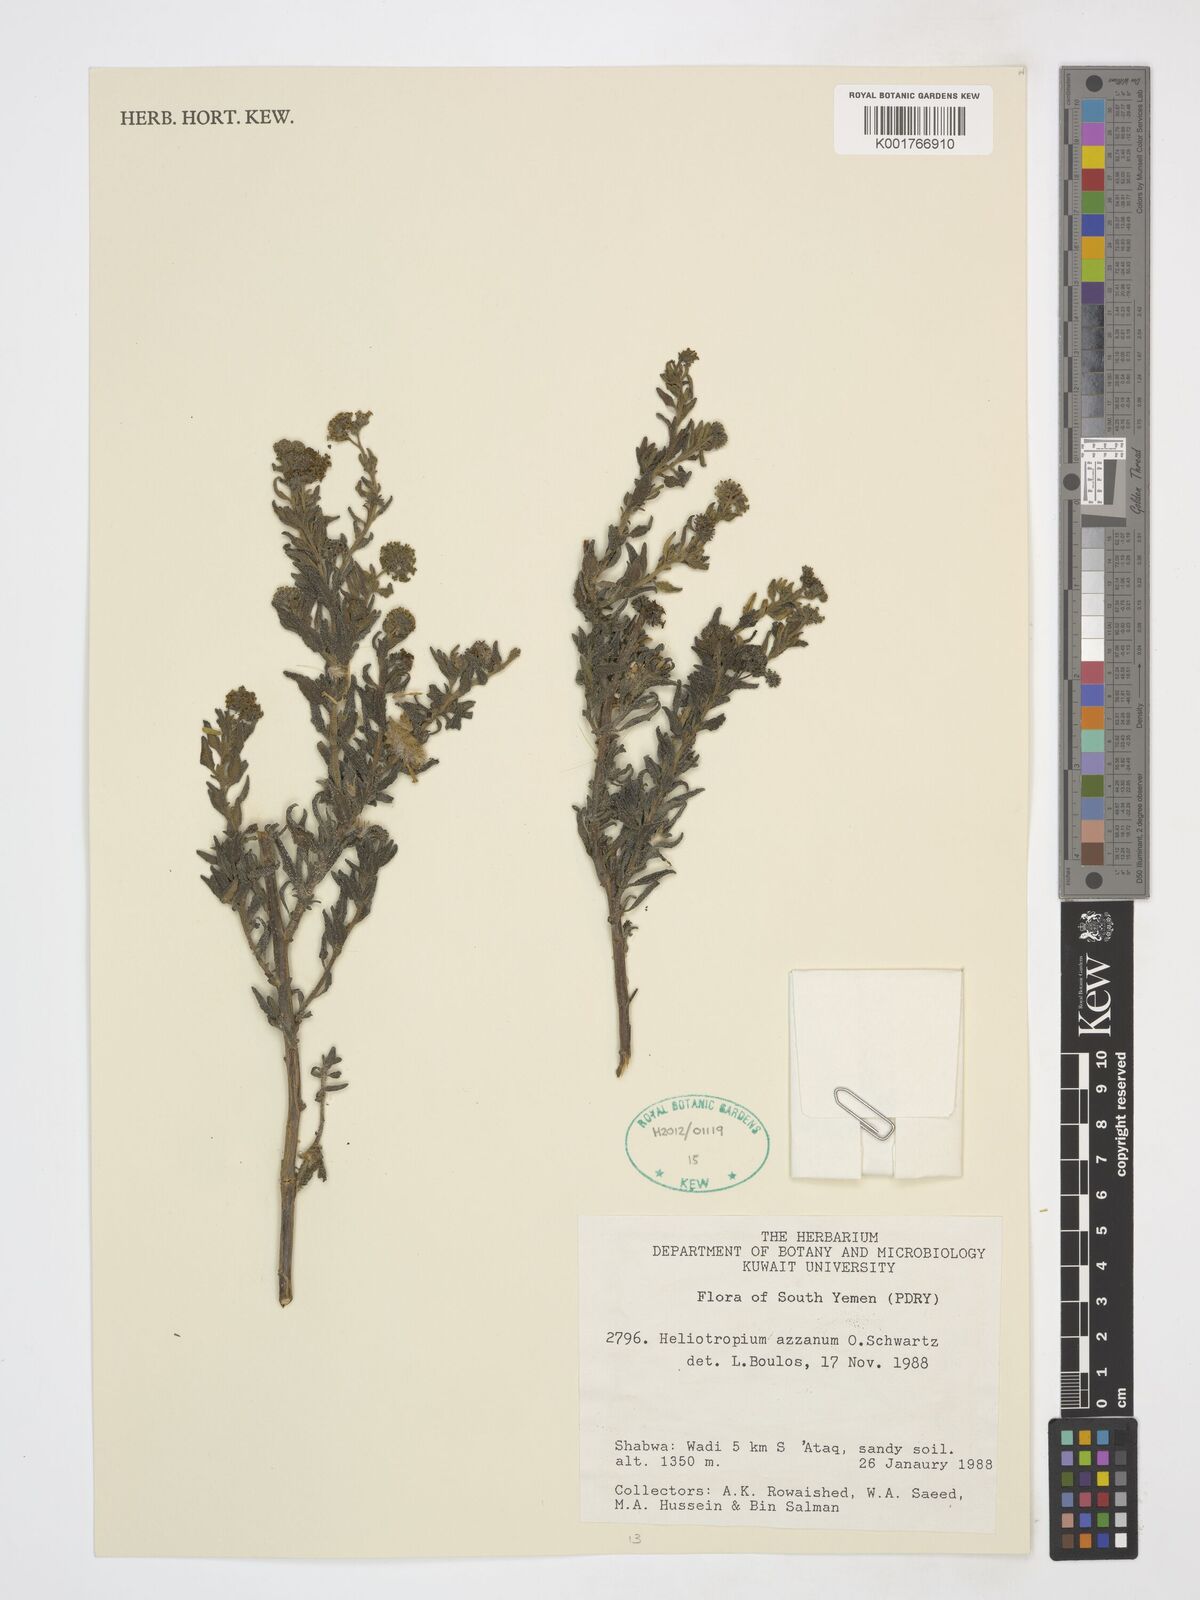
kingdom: Plantae
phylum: Tracheophyta
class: Magnoliopsida
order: Boraginales
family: Heliotropiaceae
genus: Heliotropium
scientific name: Heliotropium azzanum
